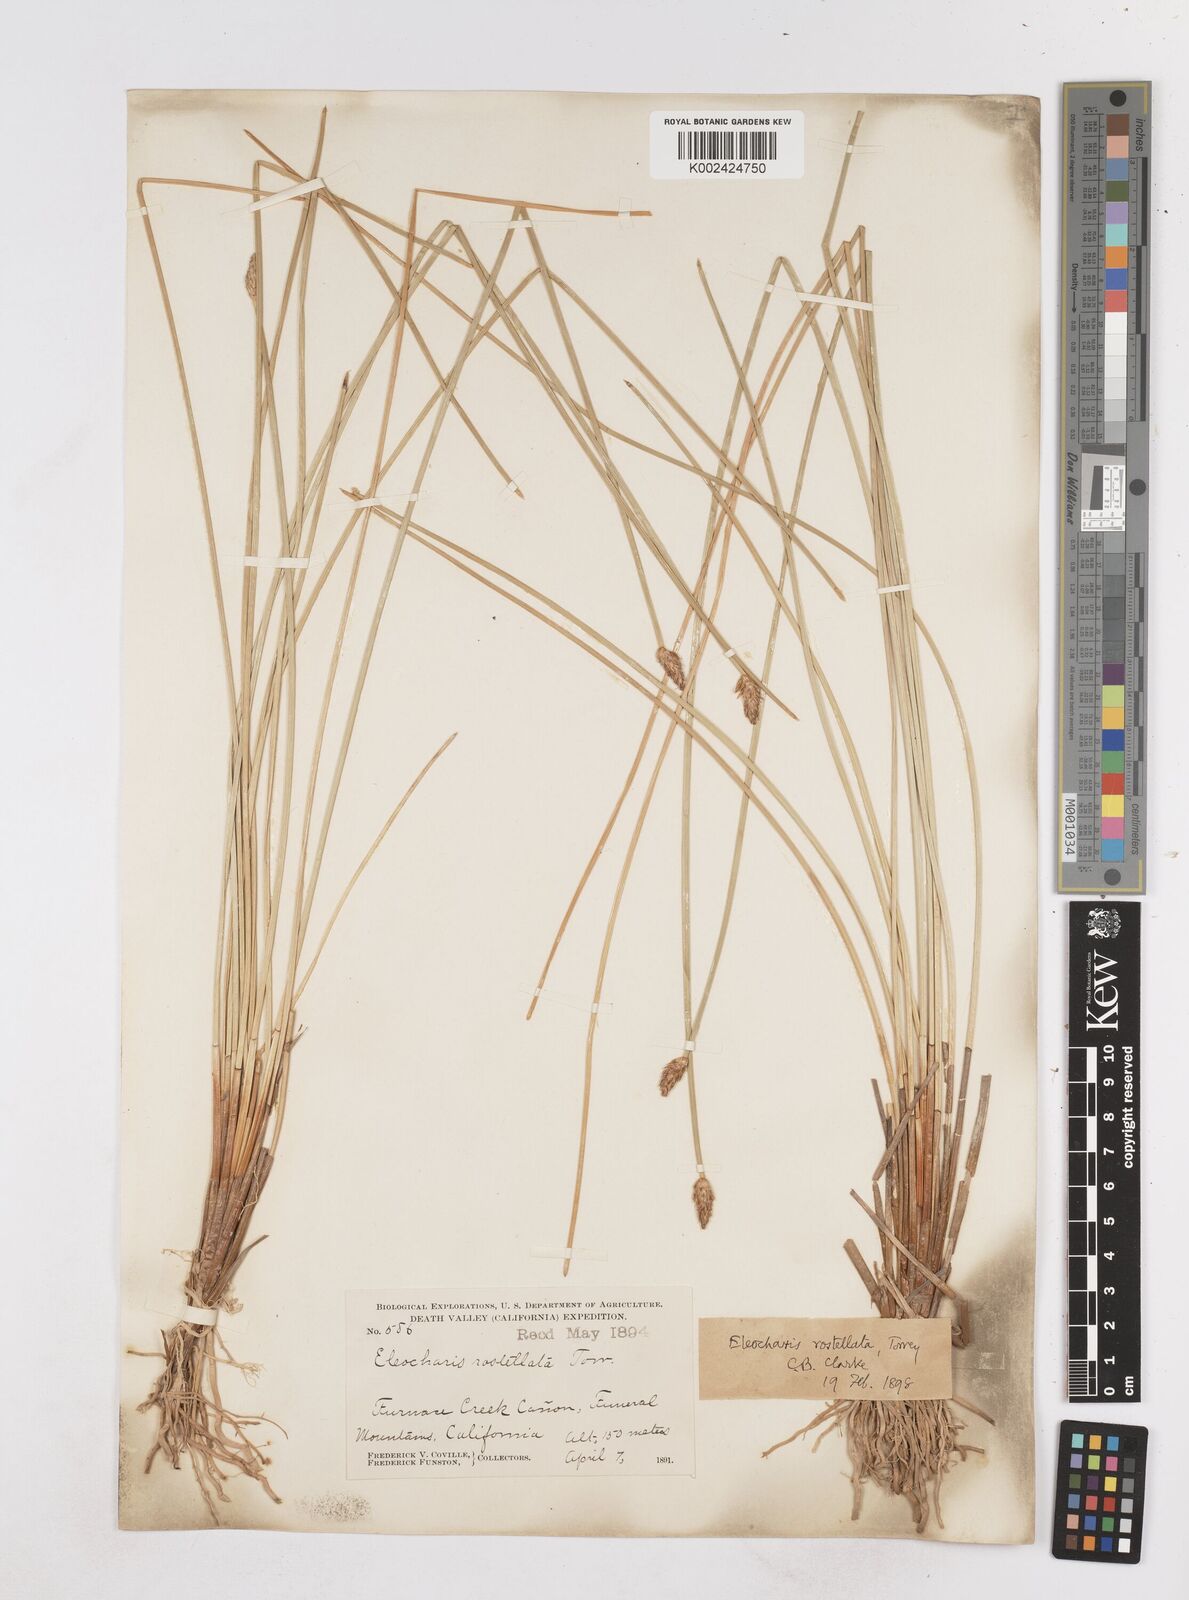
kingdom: Plantae
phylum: Tracheophyta
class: Liliopsida
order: Poales
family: Cyperaceae
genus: Eleocharis
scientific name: Eleocharis rostellata
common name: Walking sedge
